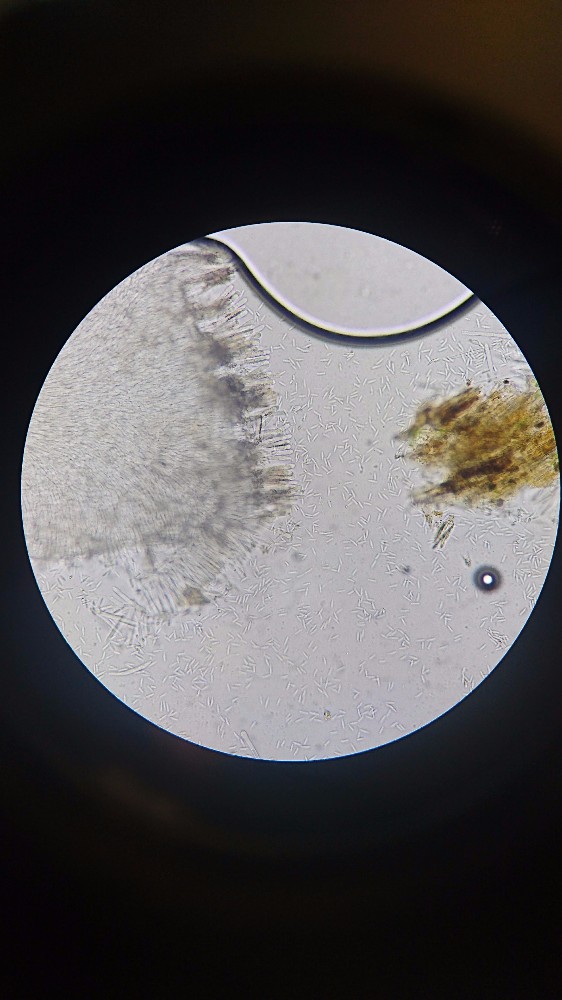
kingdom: Fungi
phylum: Ascomycota
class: Leotiomycetes
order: Helotiales
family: Lachnaceae
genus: Lachnum
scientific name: Lachnum pudibundum
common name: brude-frynseskive
